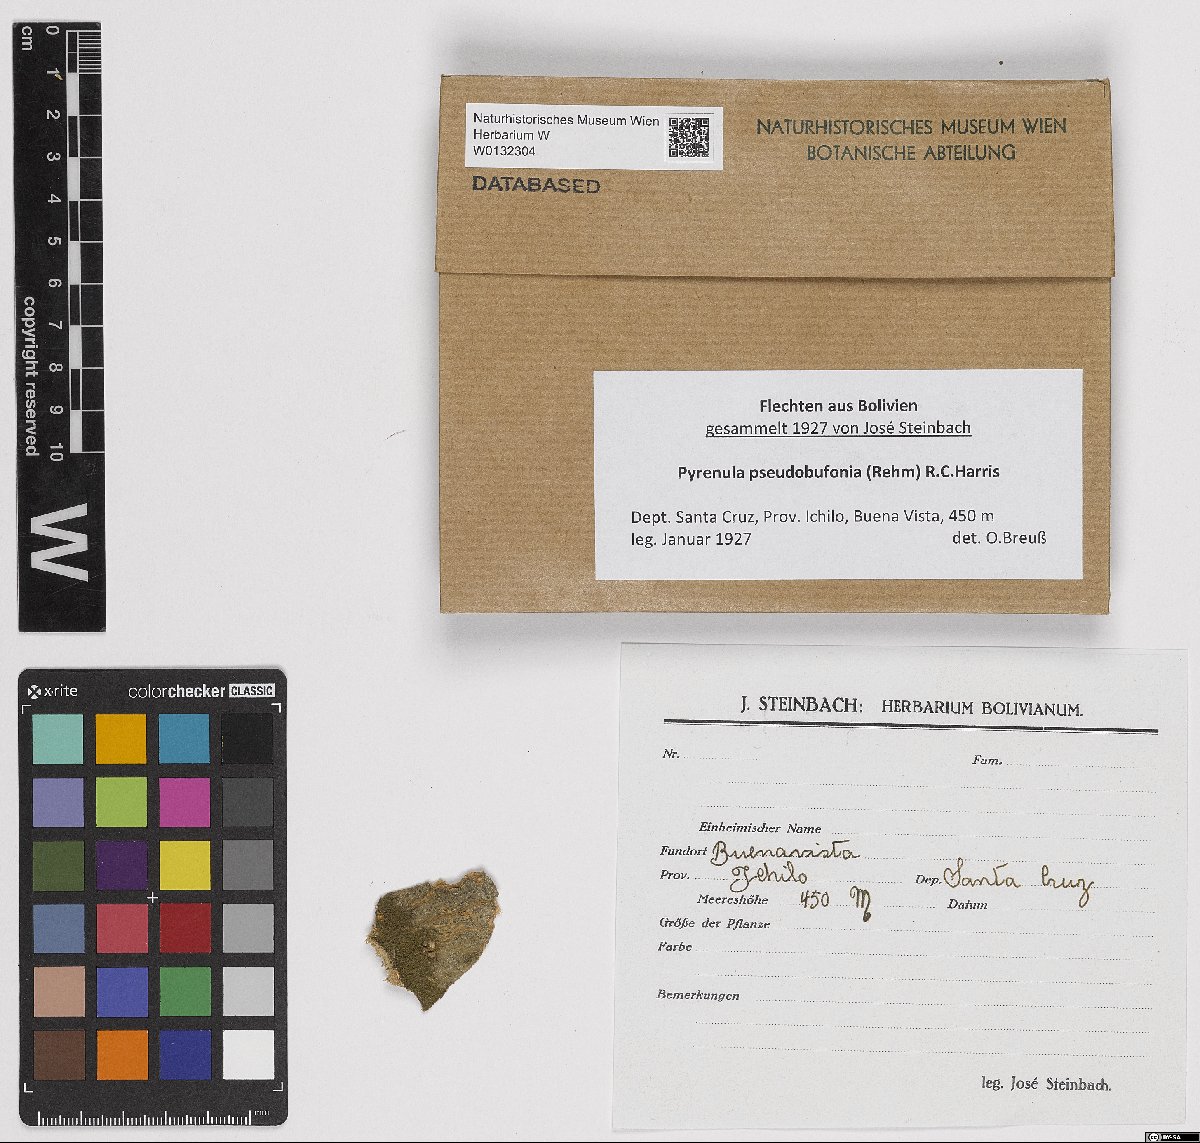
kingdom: Fungi
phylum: Ascomycota
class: Eurotiomycetes
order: Pyrenulales
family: Pyrenulaceae
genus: Pyrenula
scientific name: Pyrenula pseudobufonia
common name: Easter pox lichen
